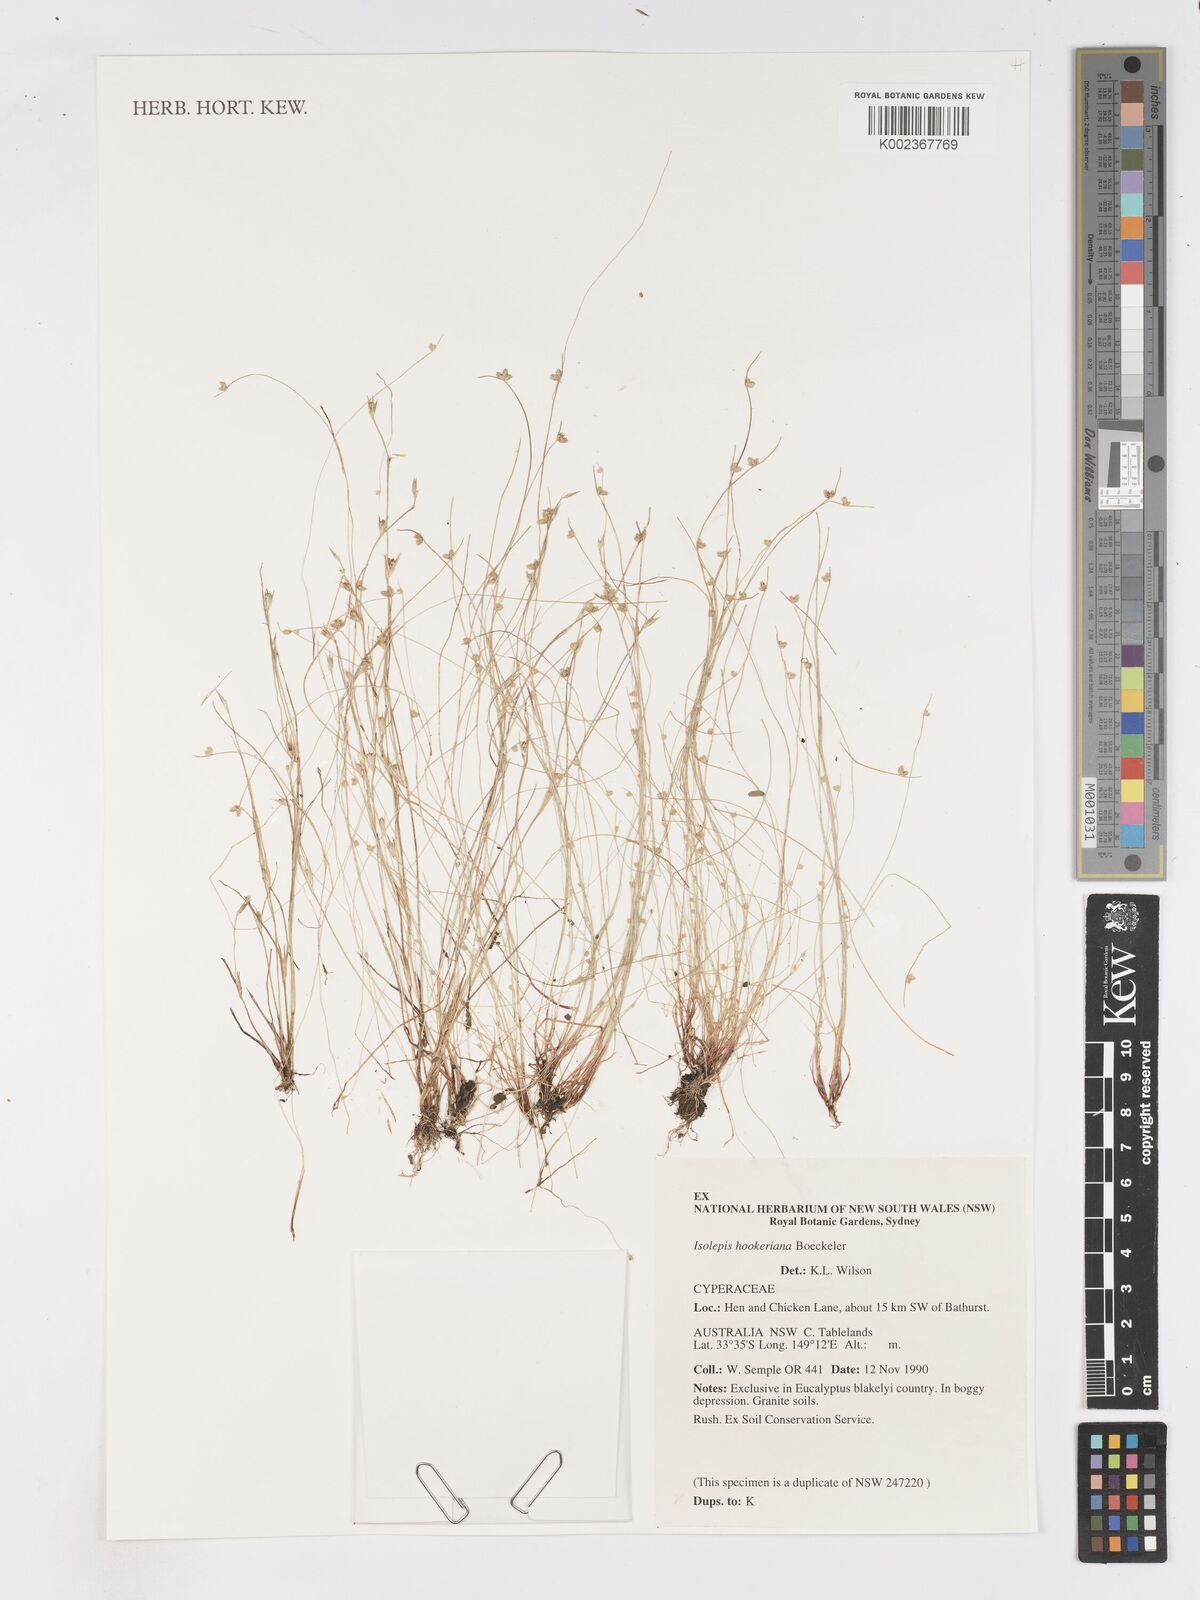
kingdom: Plantae
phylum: Tracheophyta
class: Liliopsida
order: Poales
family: Cyperaceae
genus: Isolepis
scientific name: Isolepis multicaulis
